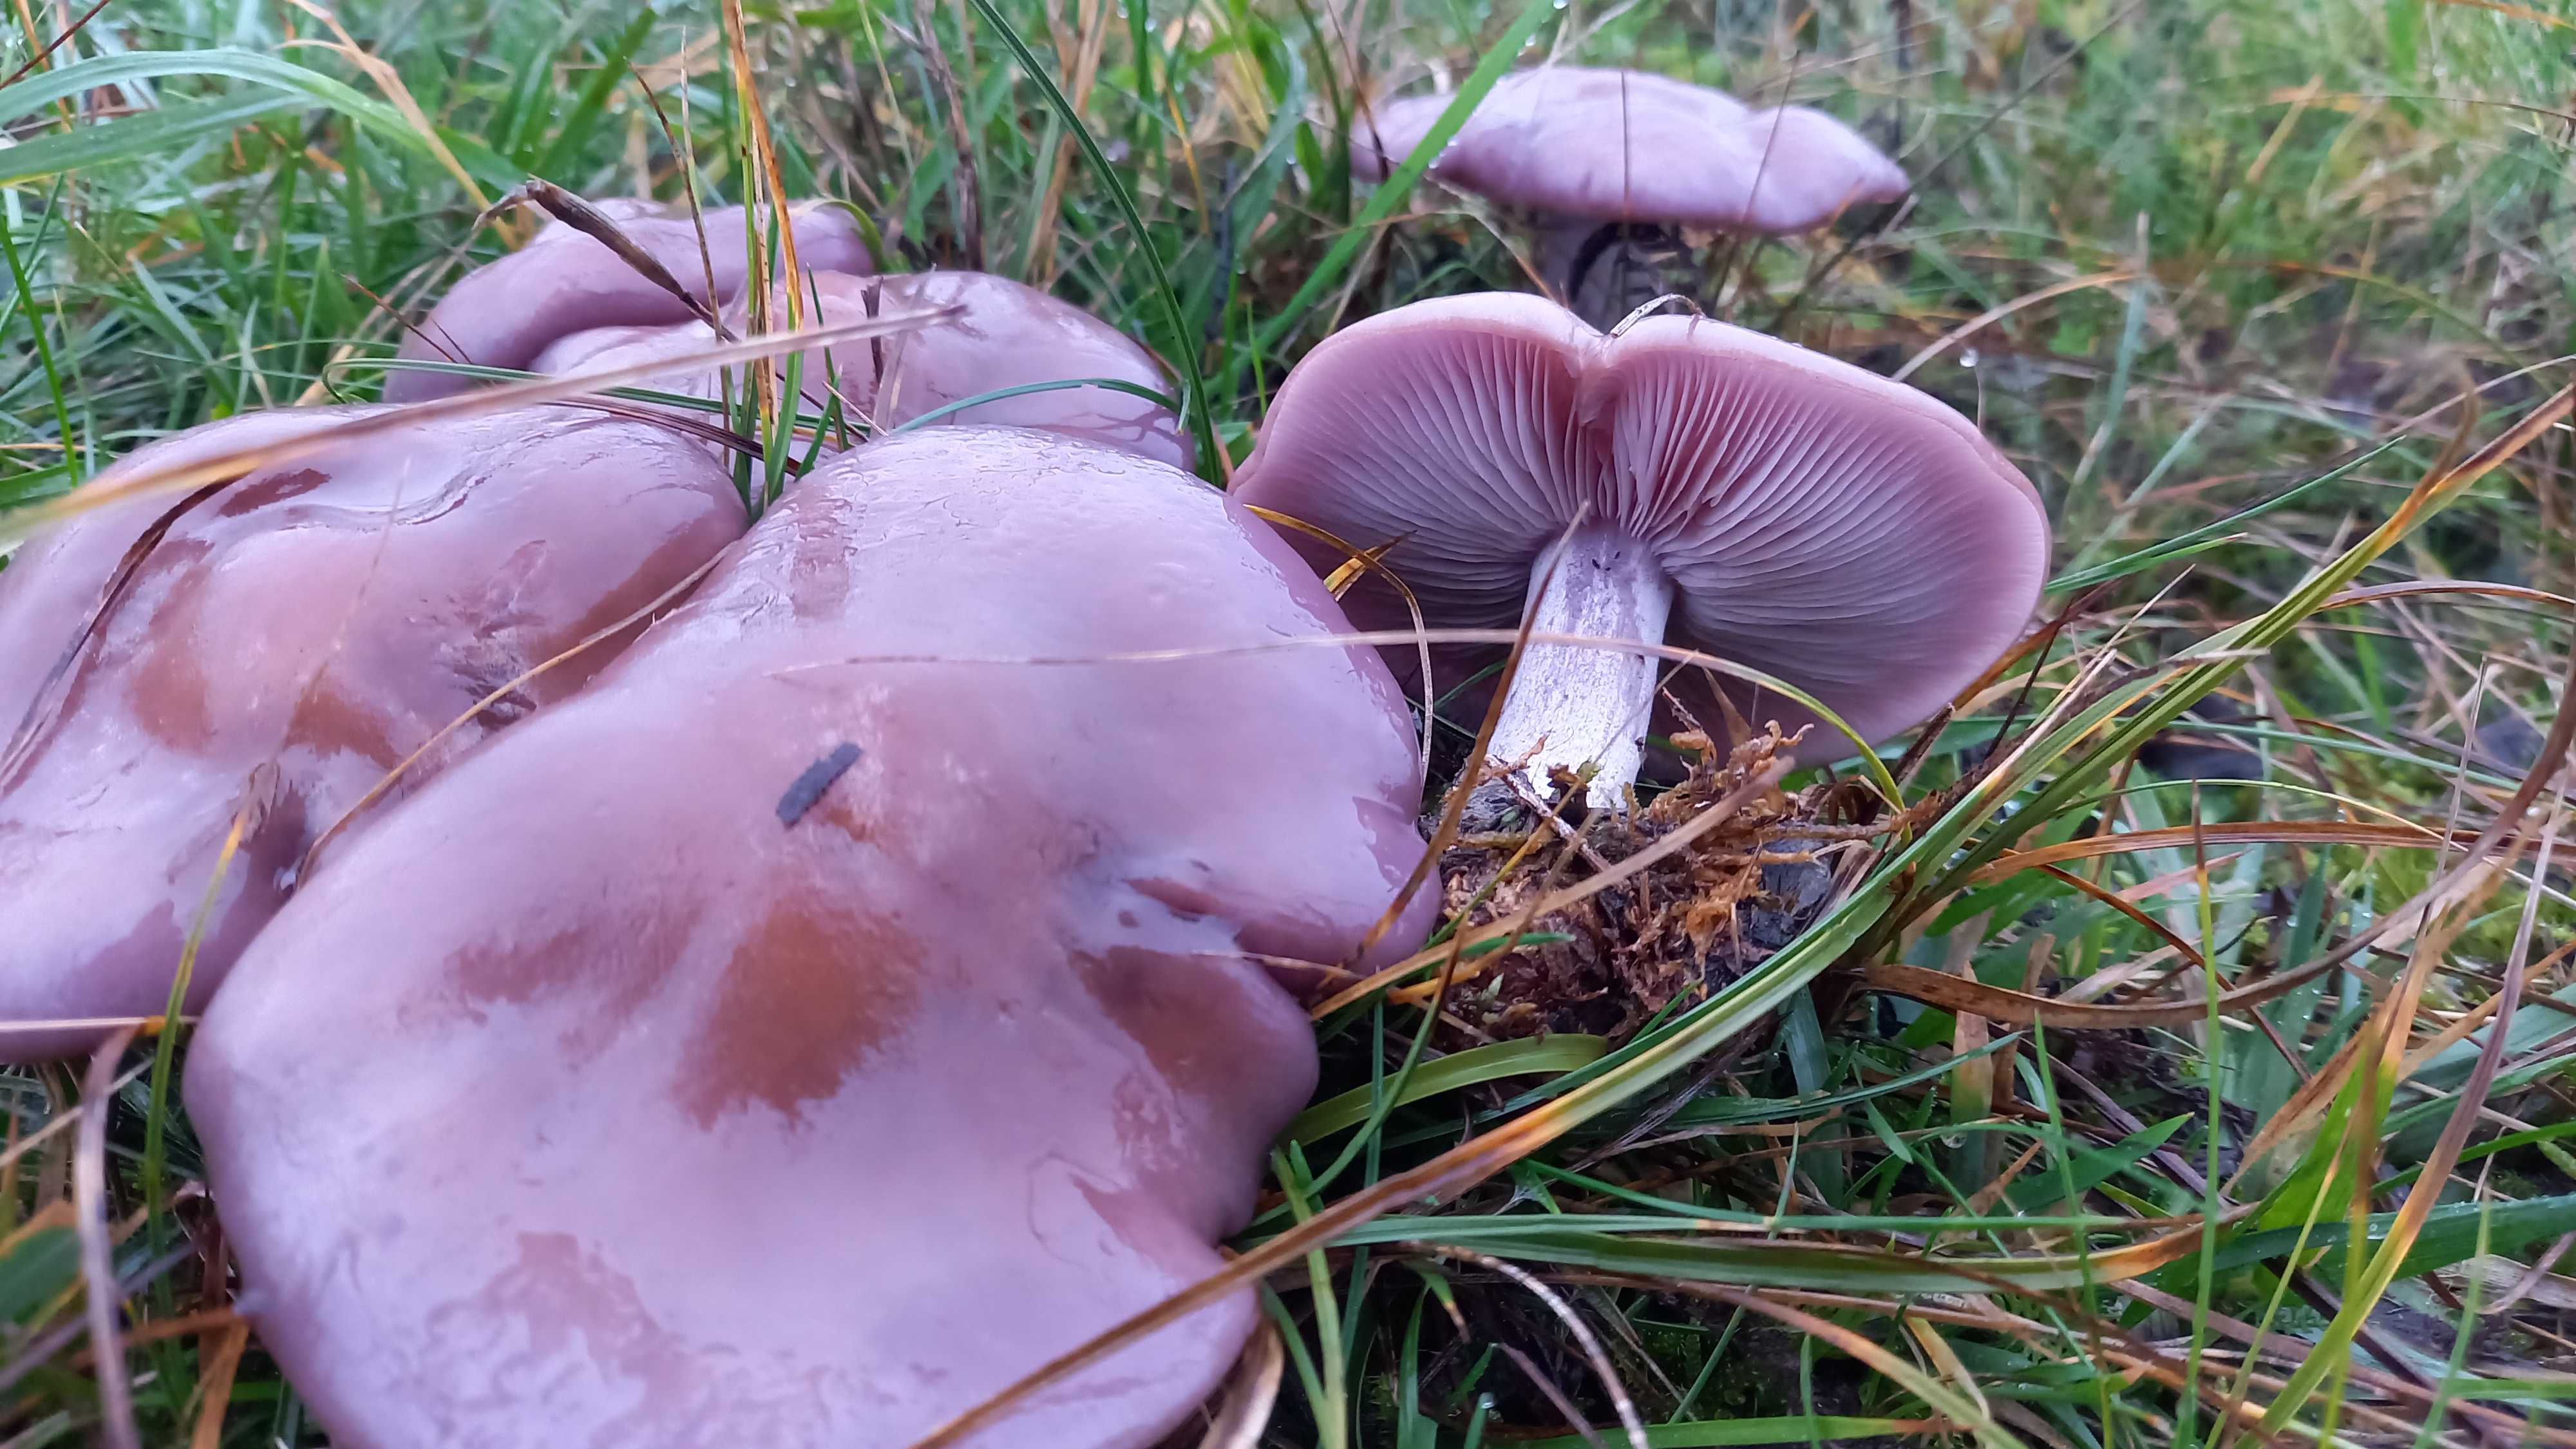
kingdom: Fungi
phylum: Basidiomycota
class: Agaricomycetes
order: Agaricales
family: Tricholomataceae
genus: Lepista
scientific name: Lepista nuda
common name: violet hekseringshat
